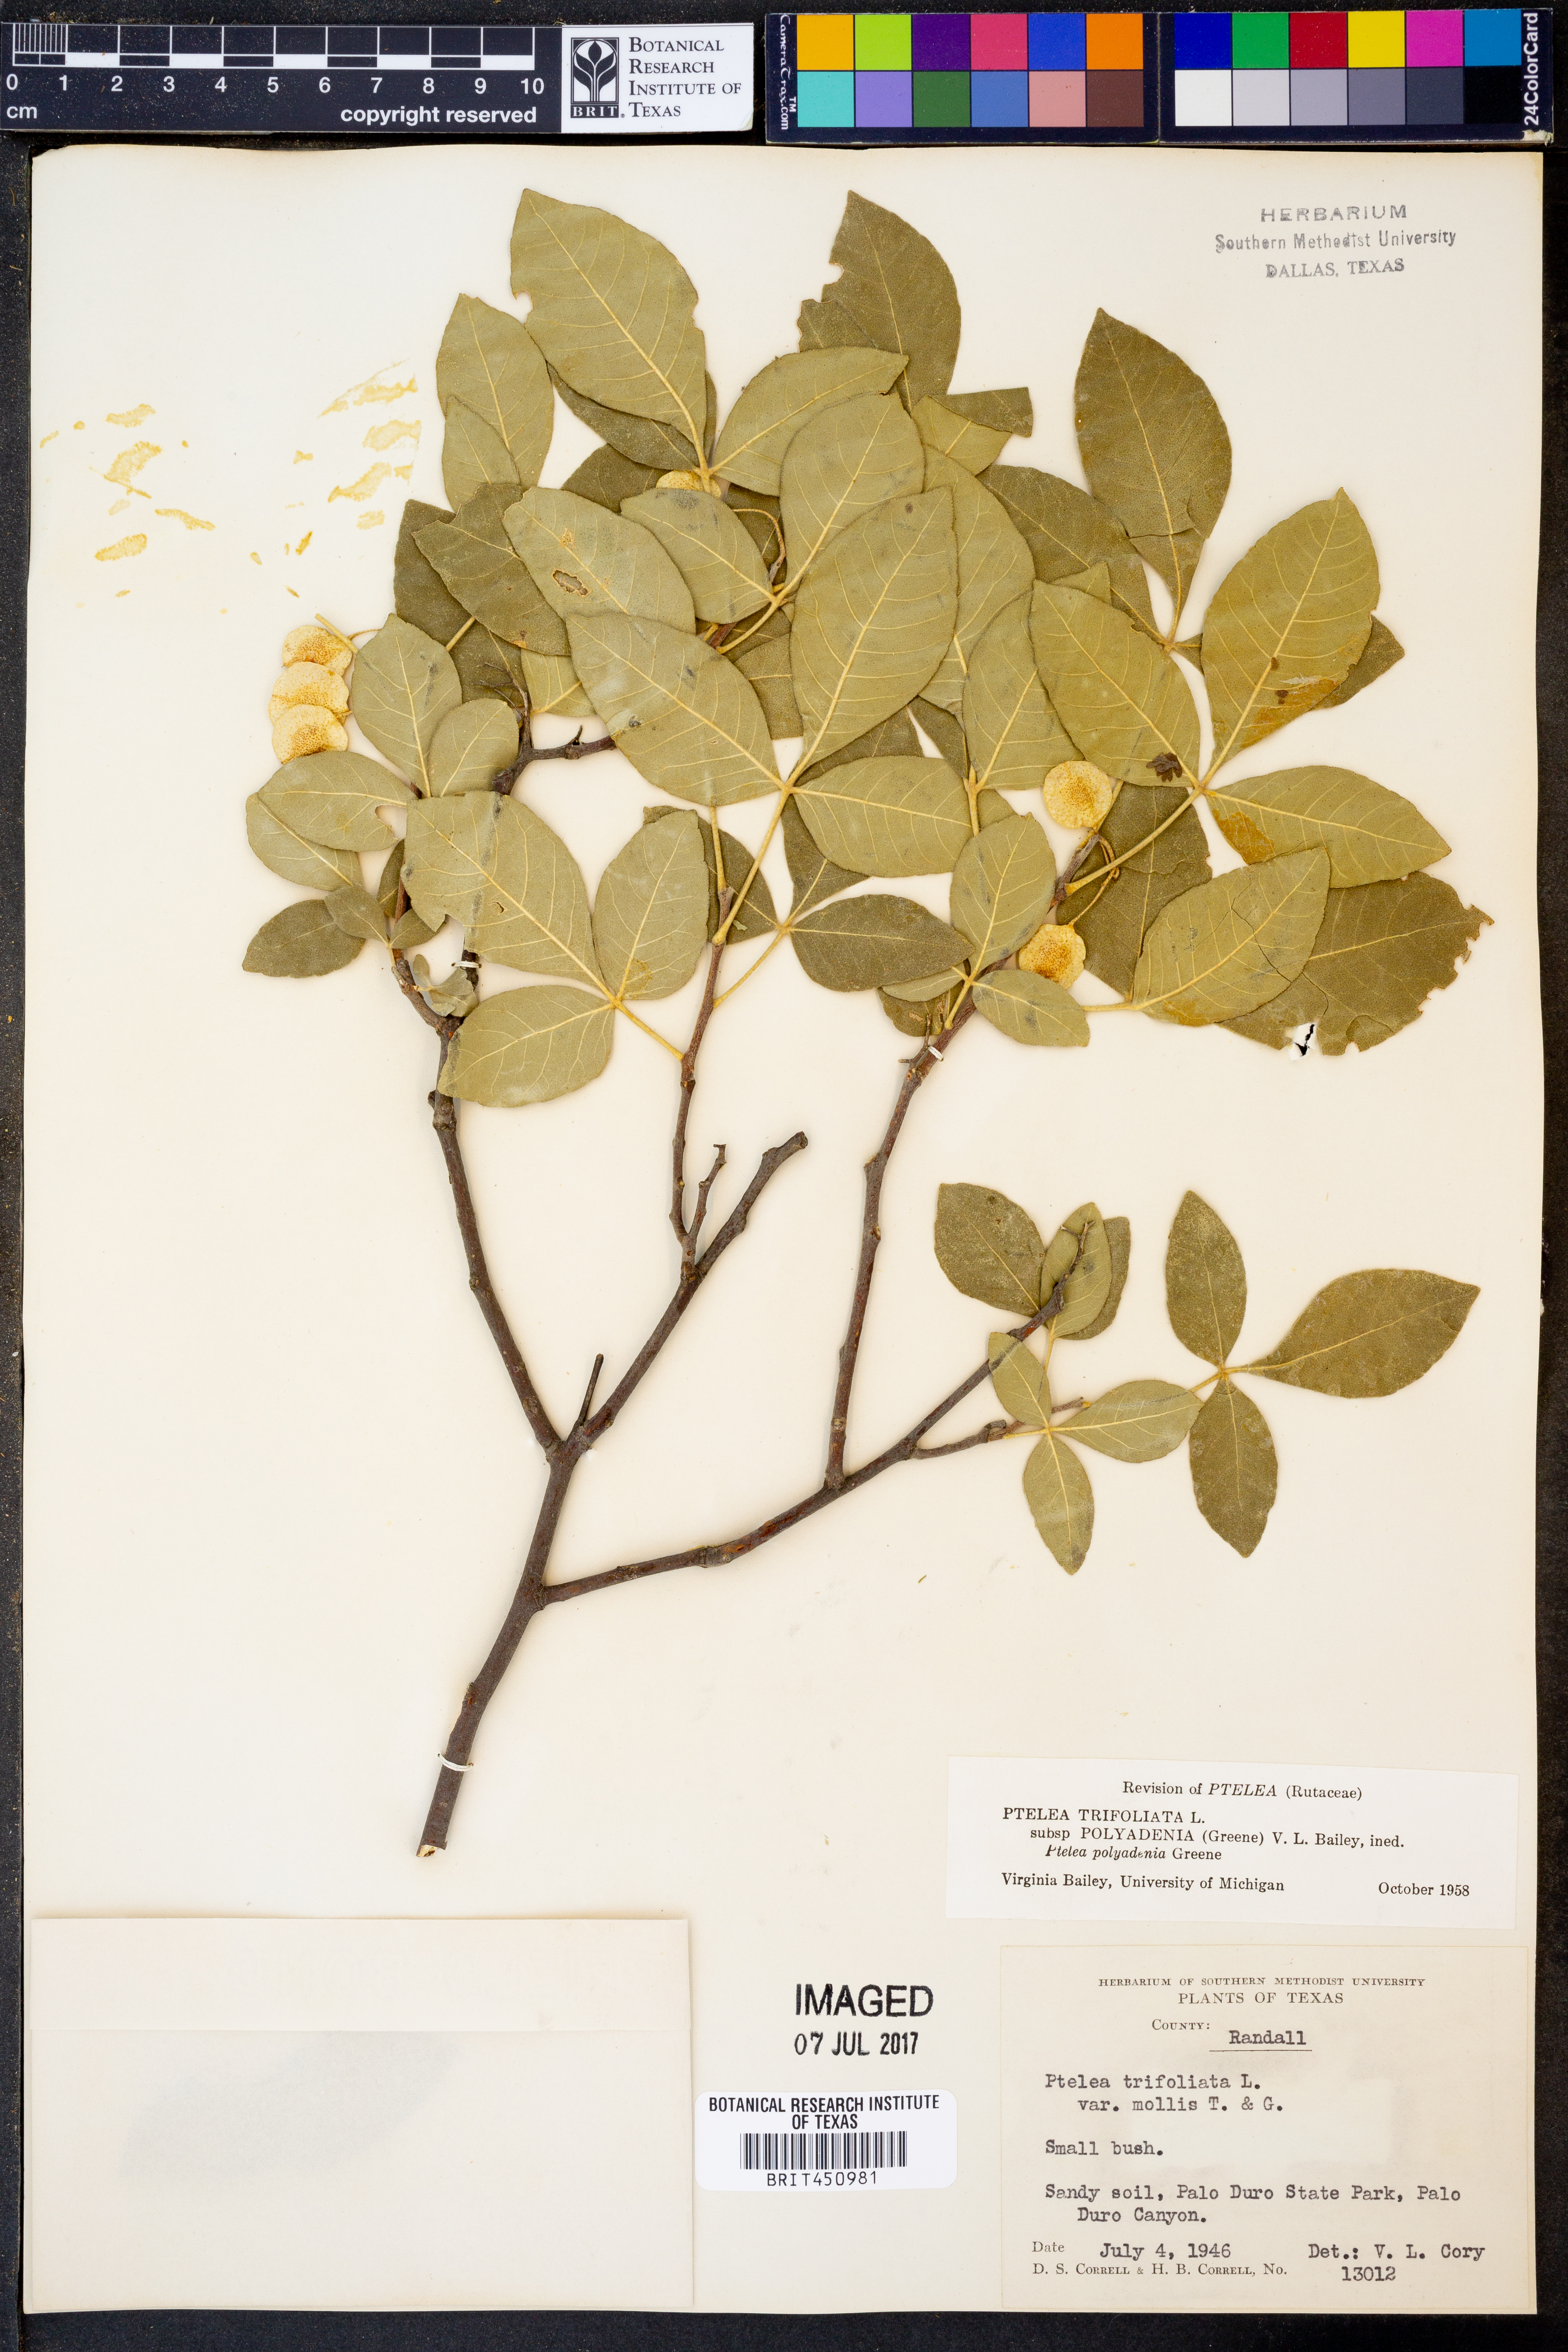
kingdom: Plantae
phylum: Tracheophyta
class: Magnoliopsida
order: Sapindales
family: Rutaceae
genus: Ptelea
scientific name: Ptelea trifoliata
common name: Common hop-tree
